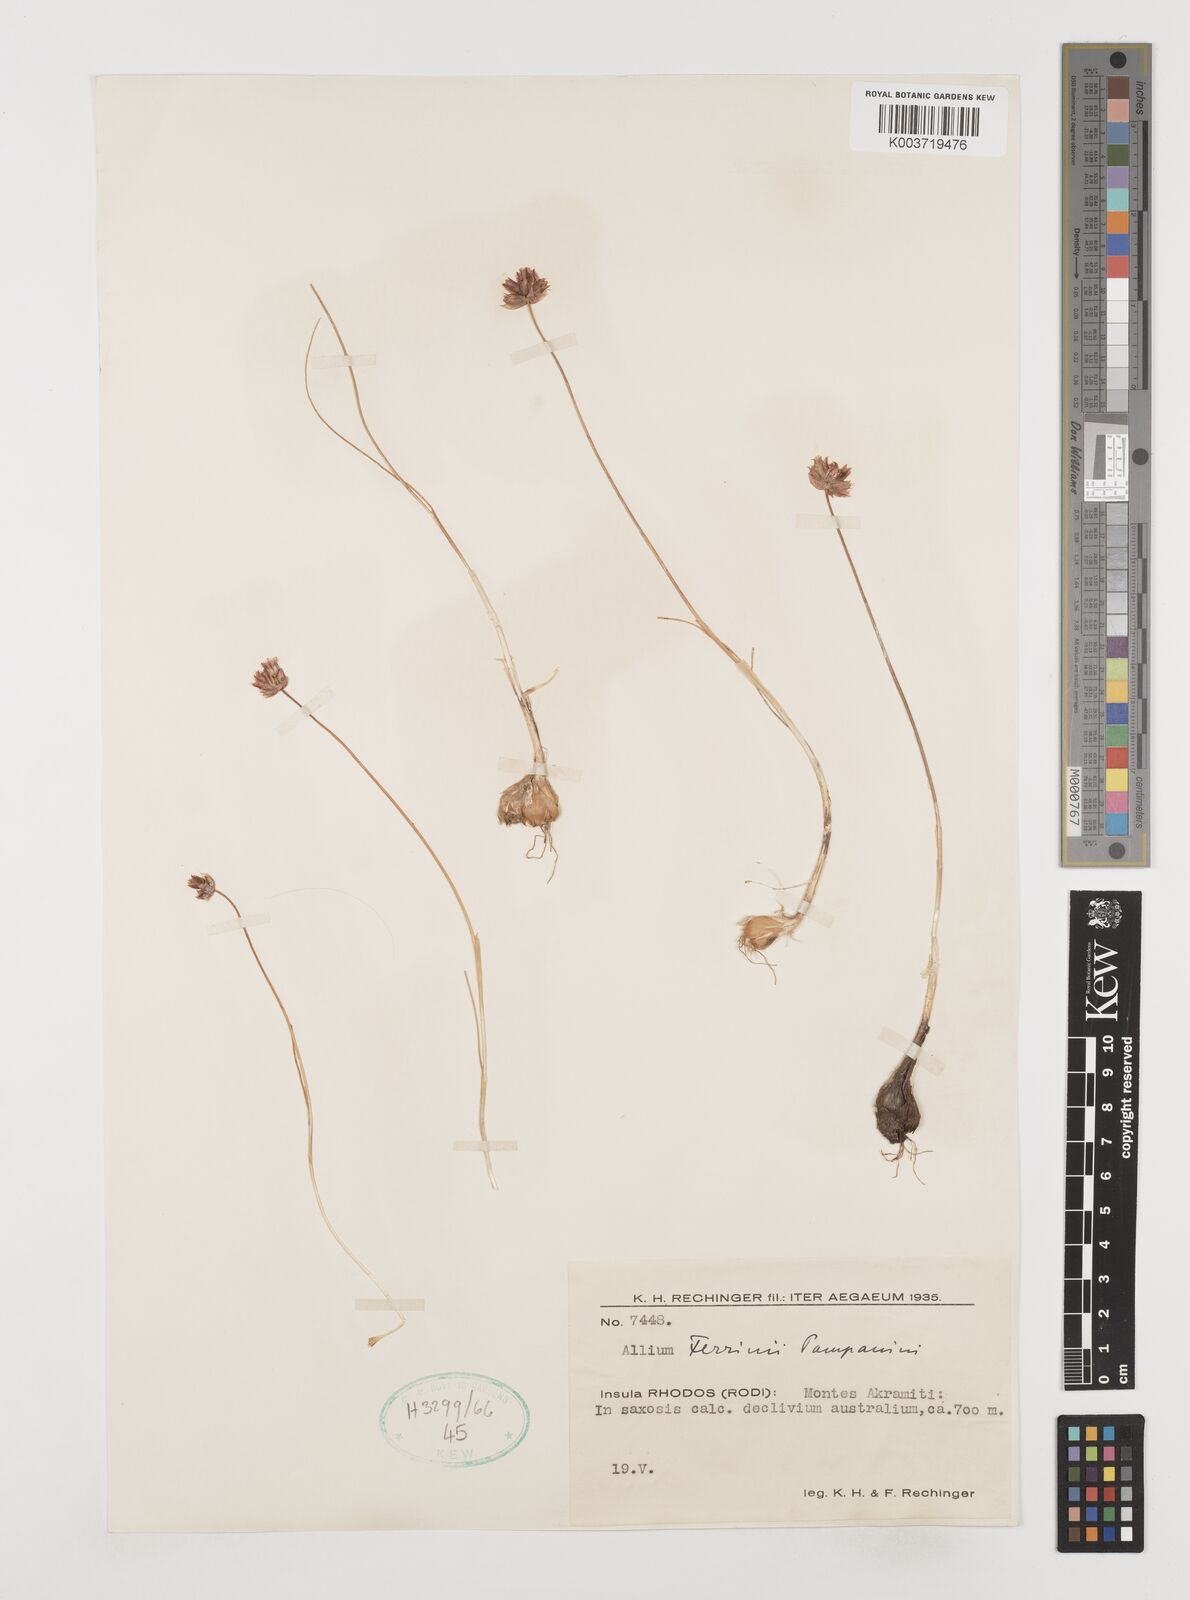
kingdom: Plantae
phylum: Tracheophyta
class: Liliopsida
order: Asparagales
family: Amaryllidaceae
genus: Allium
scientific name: Allium junceum
